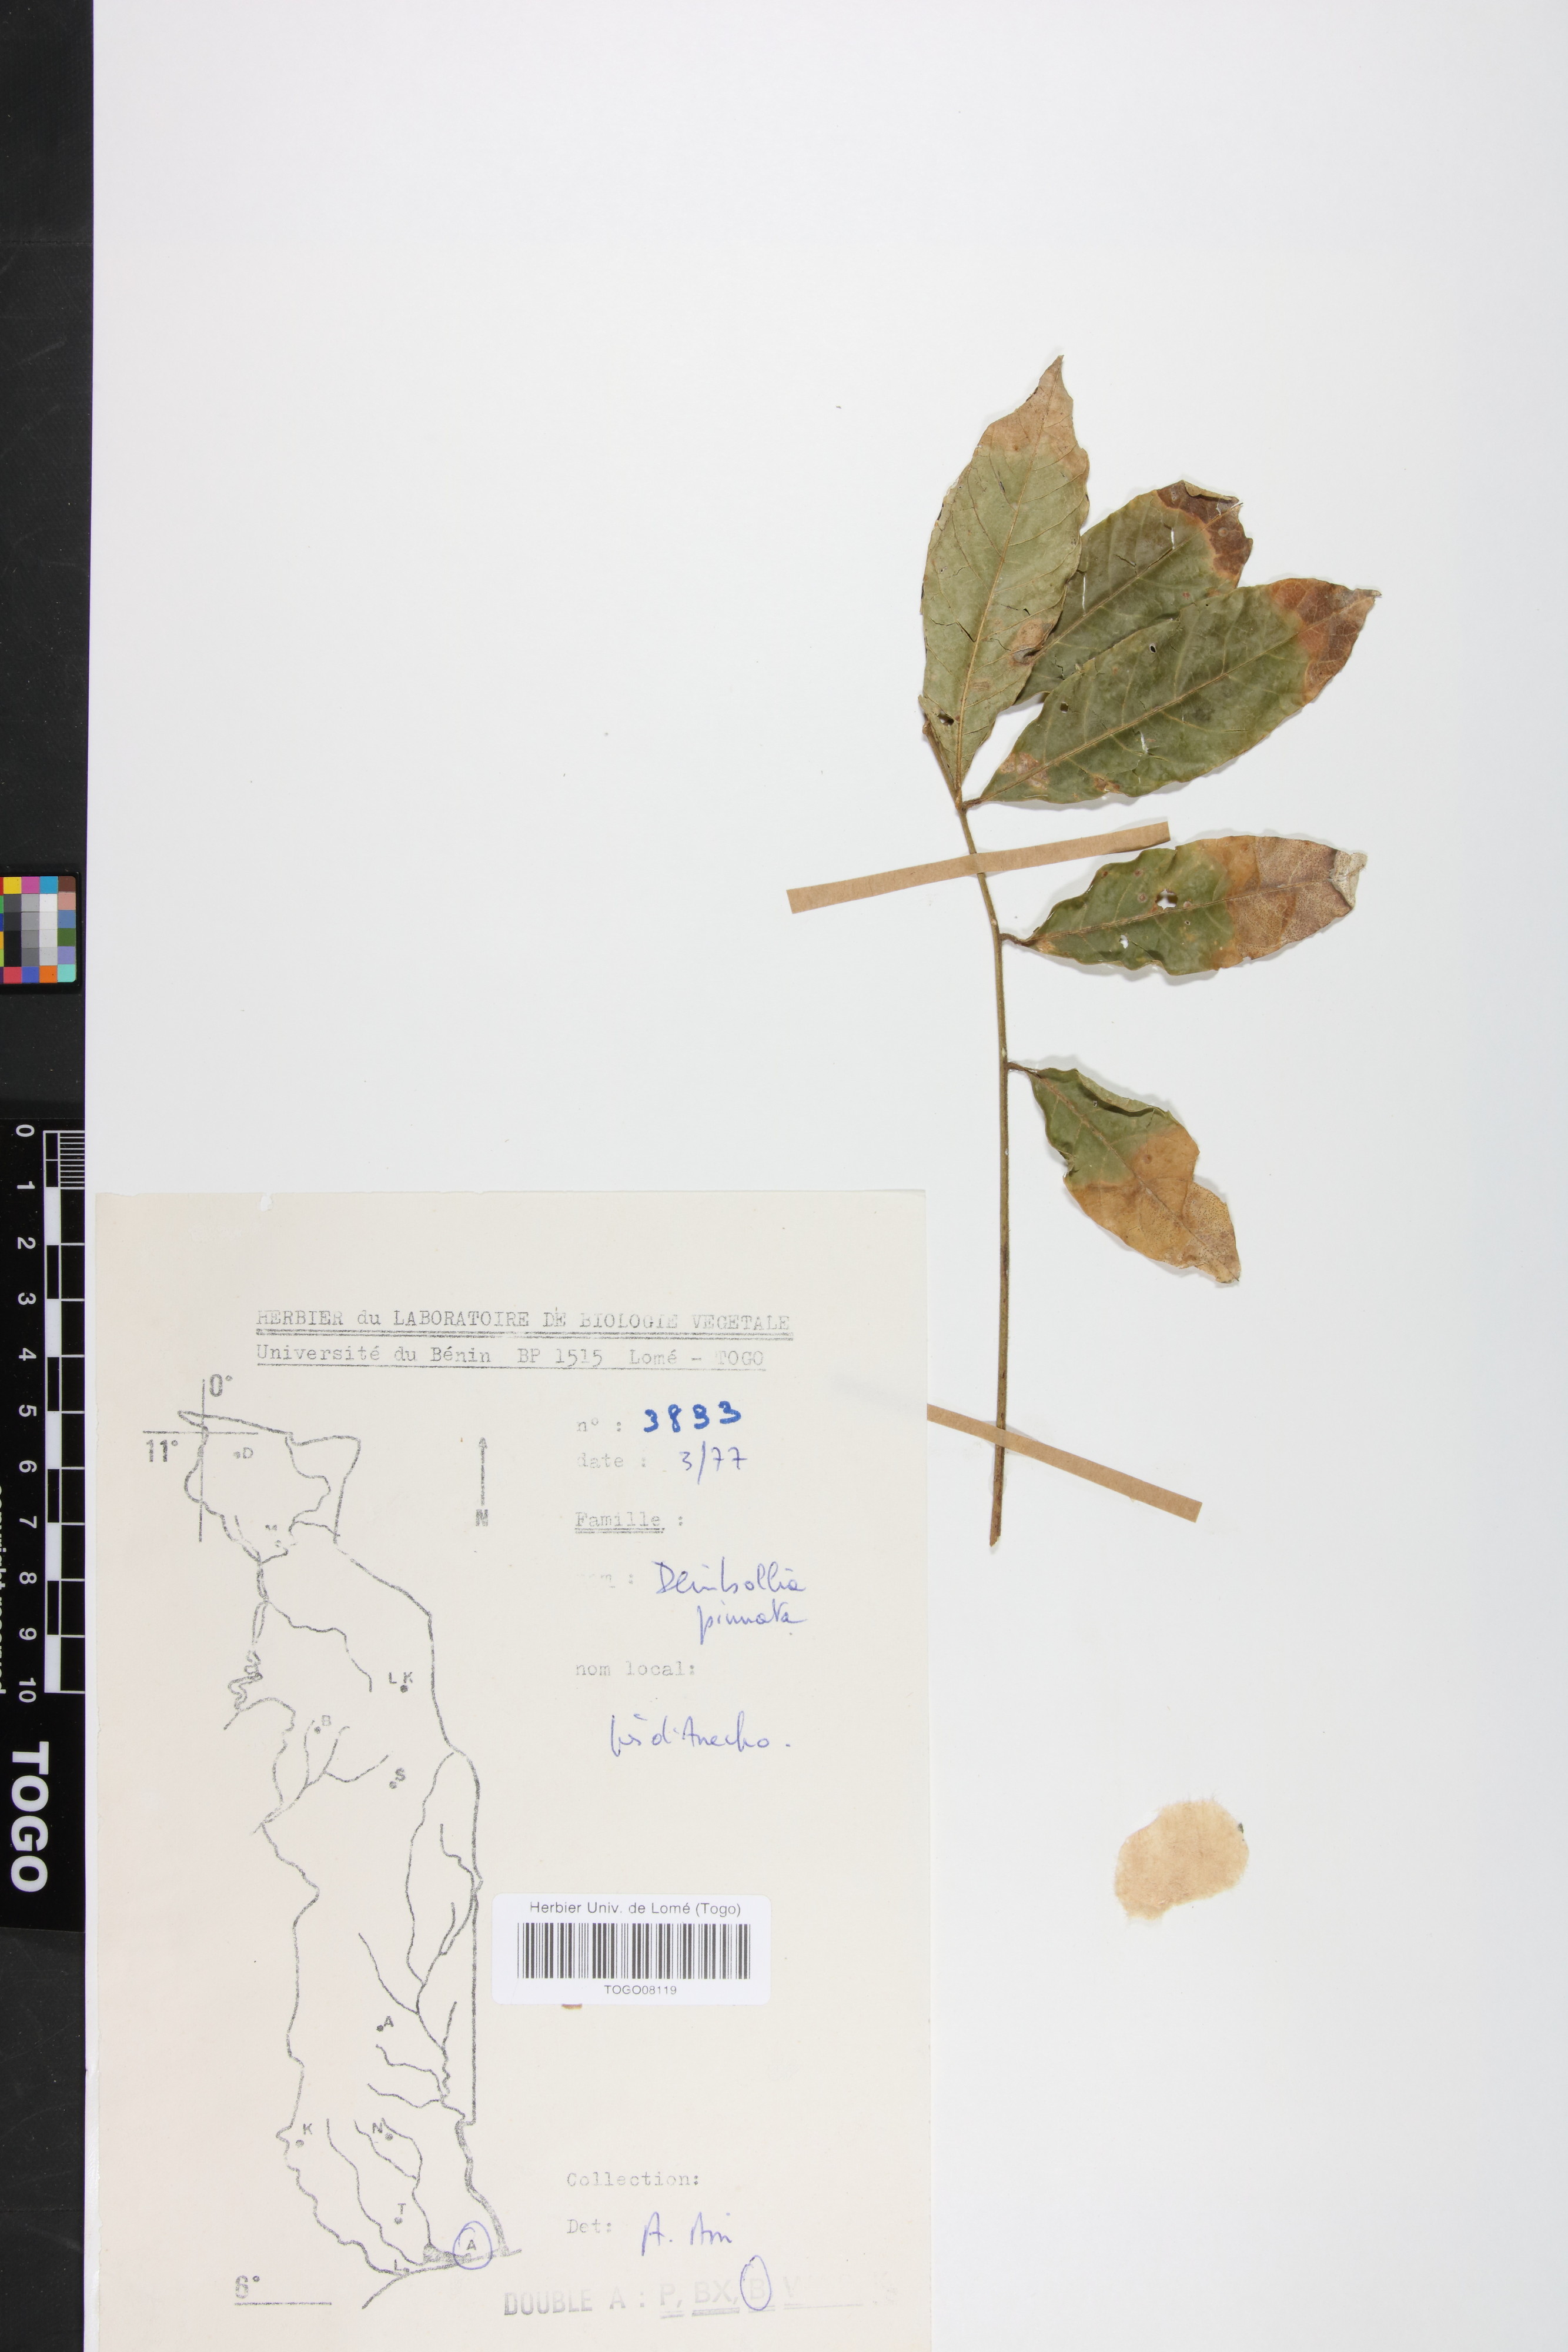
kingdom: Plantae
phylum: Tracheophyta
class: Magnoliopsida
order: Sapindales
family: Sapindaceae
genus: Deinbollia
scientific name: Deinbollia pinnata
